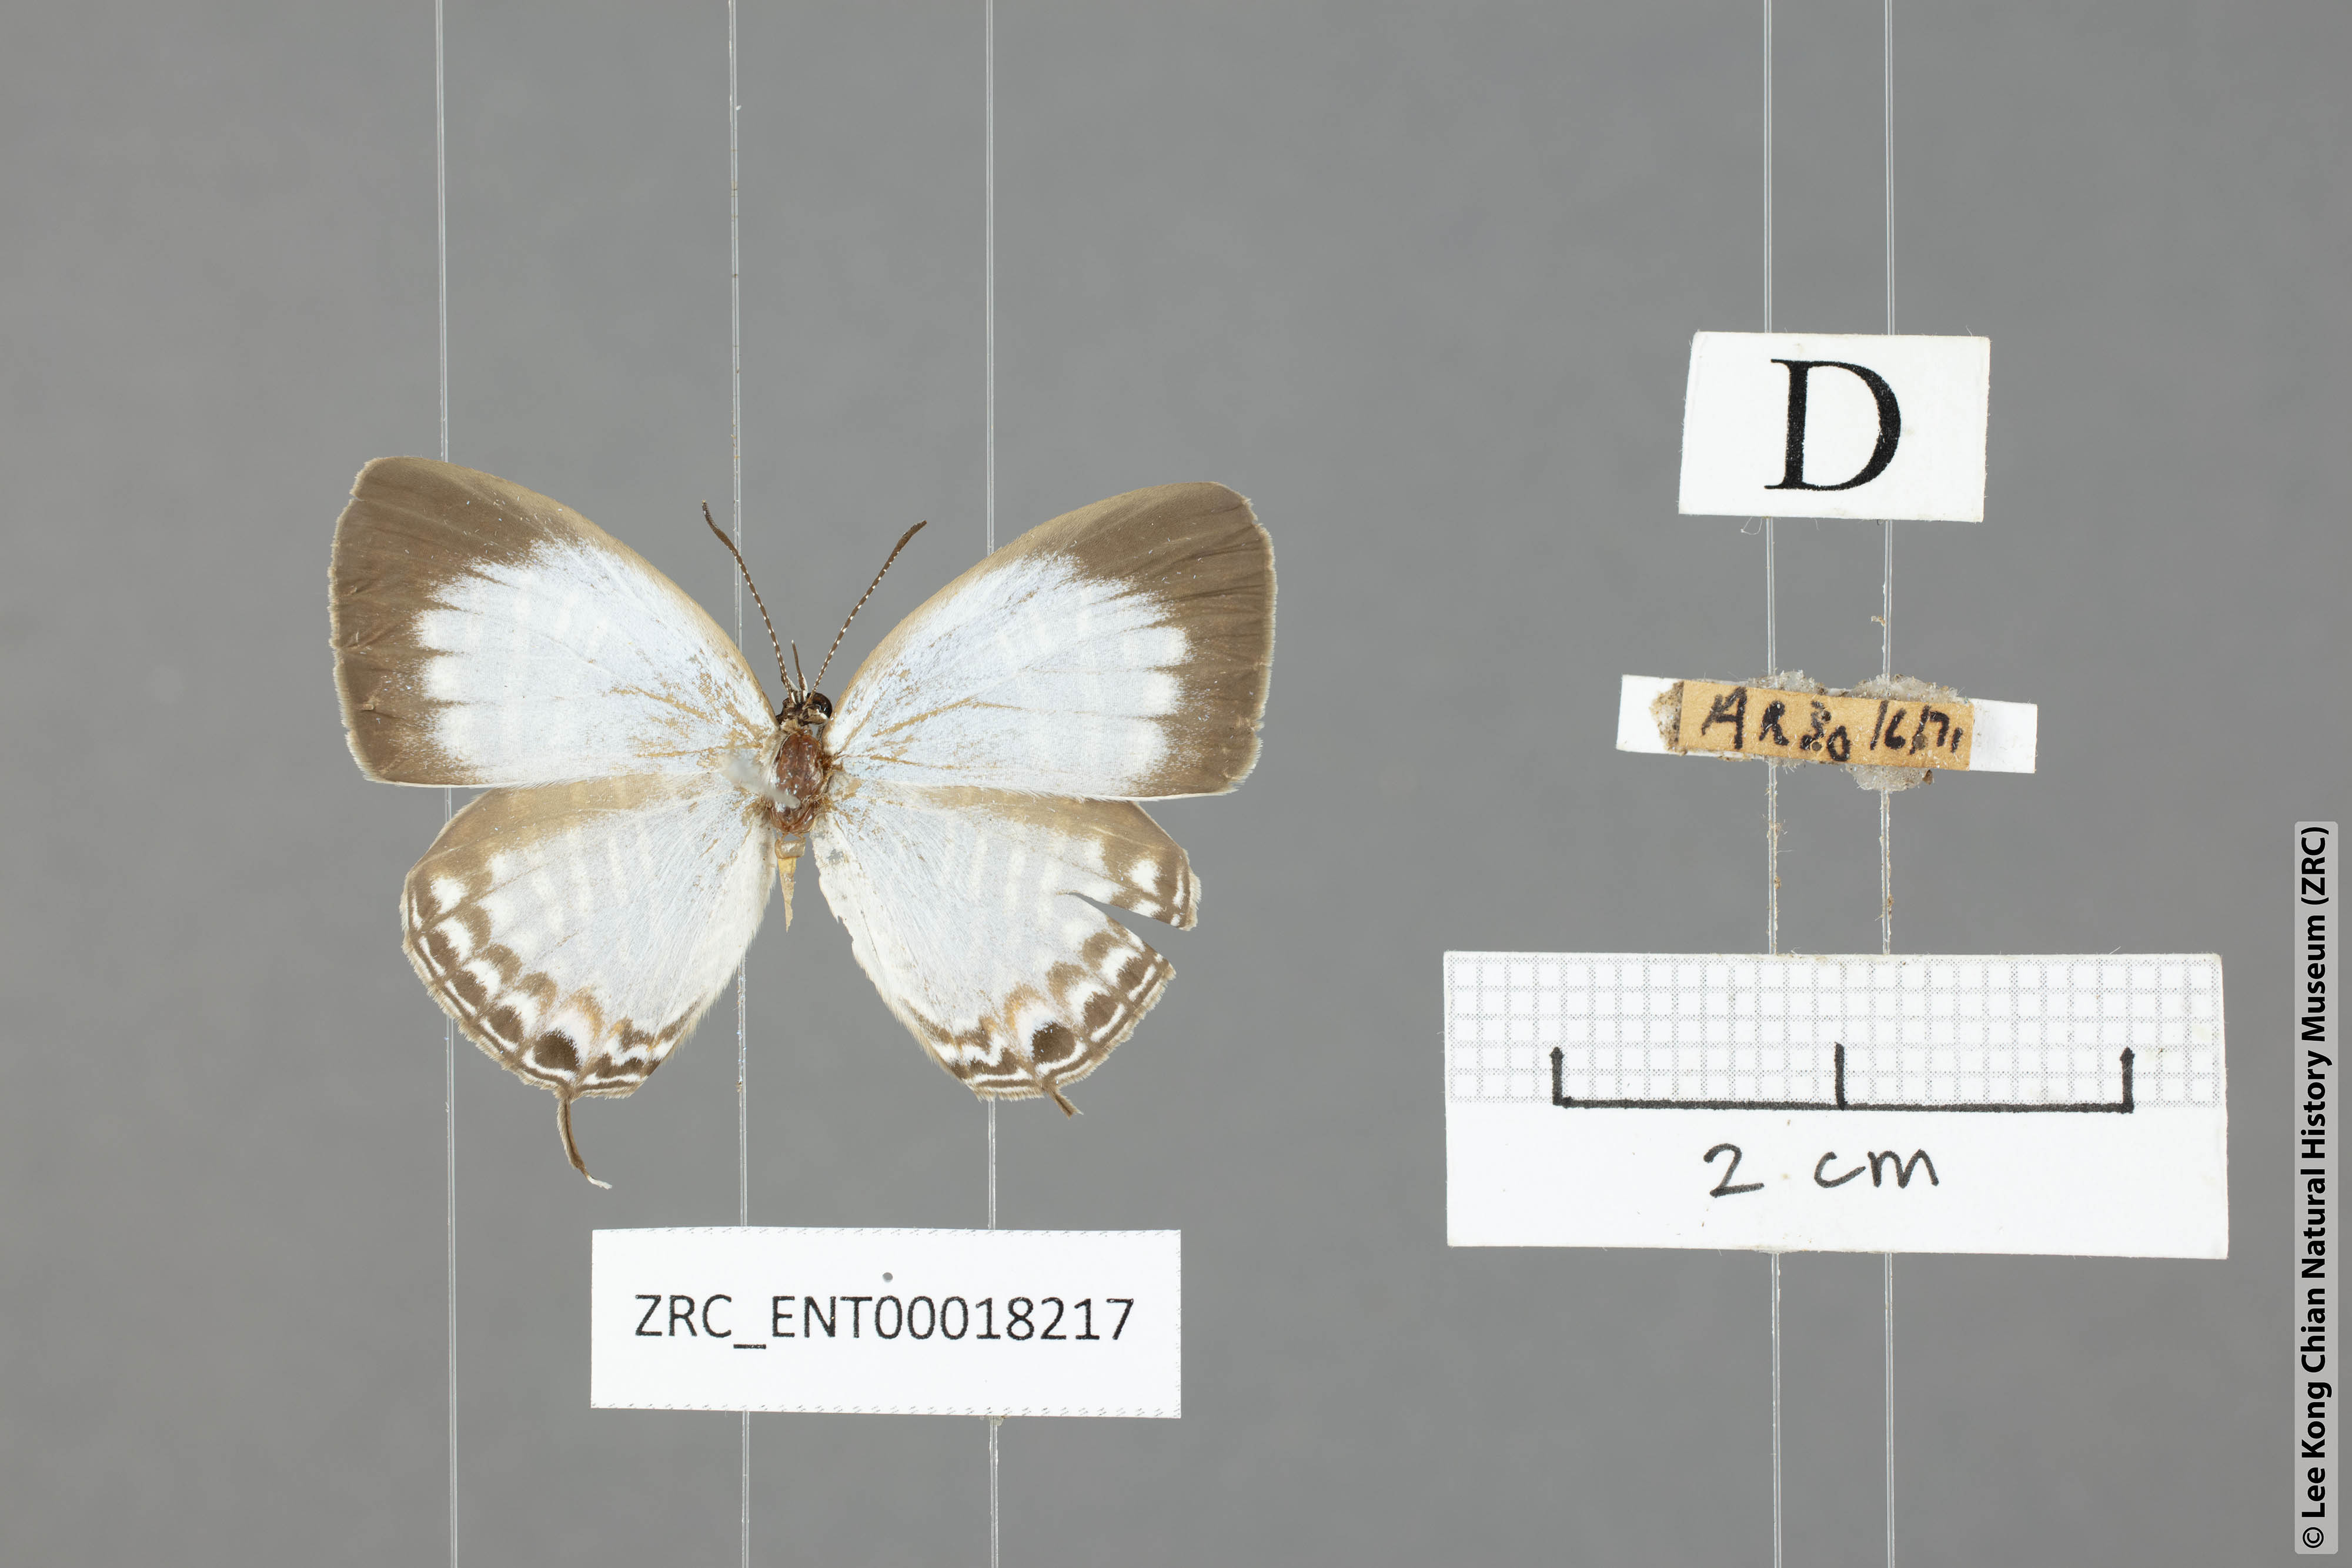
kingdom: Animalia
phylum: Arthropoda
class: Insecta
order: Lepidoptera
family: Lycaenidae
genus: Jamides
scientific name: Jamides zebra
